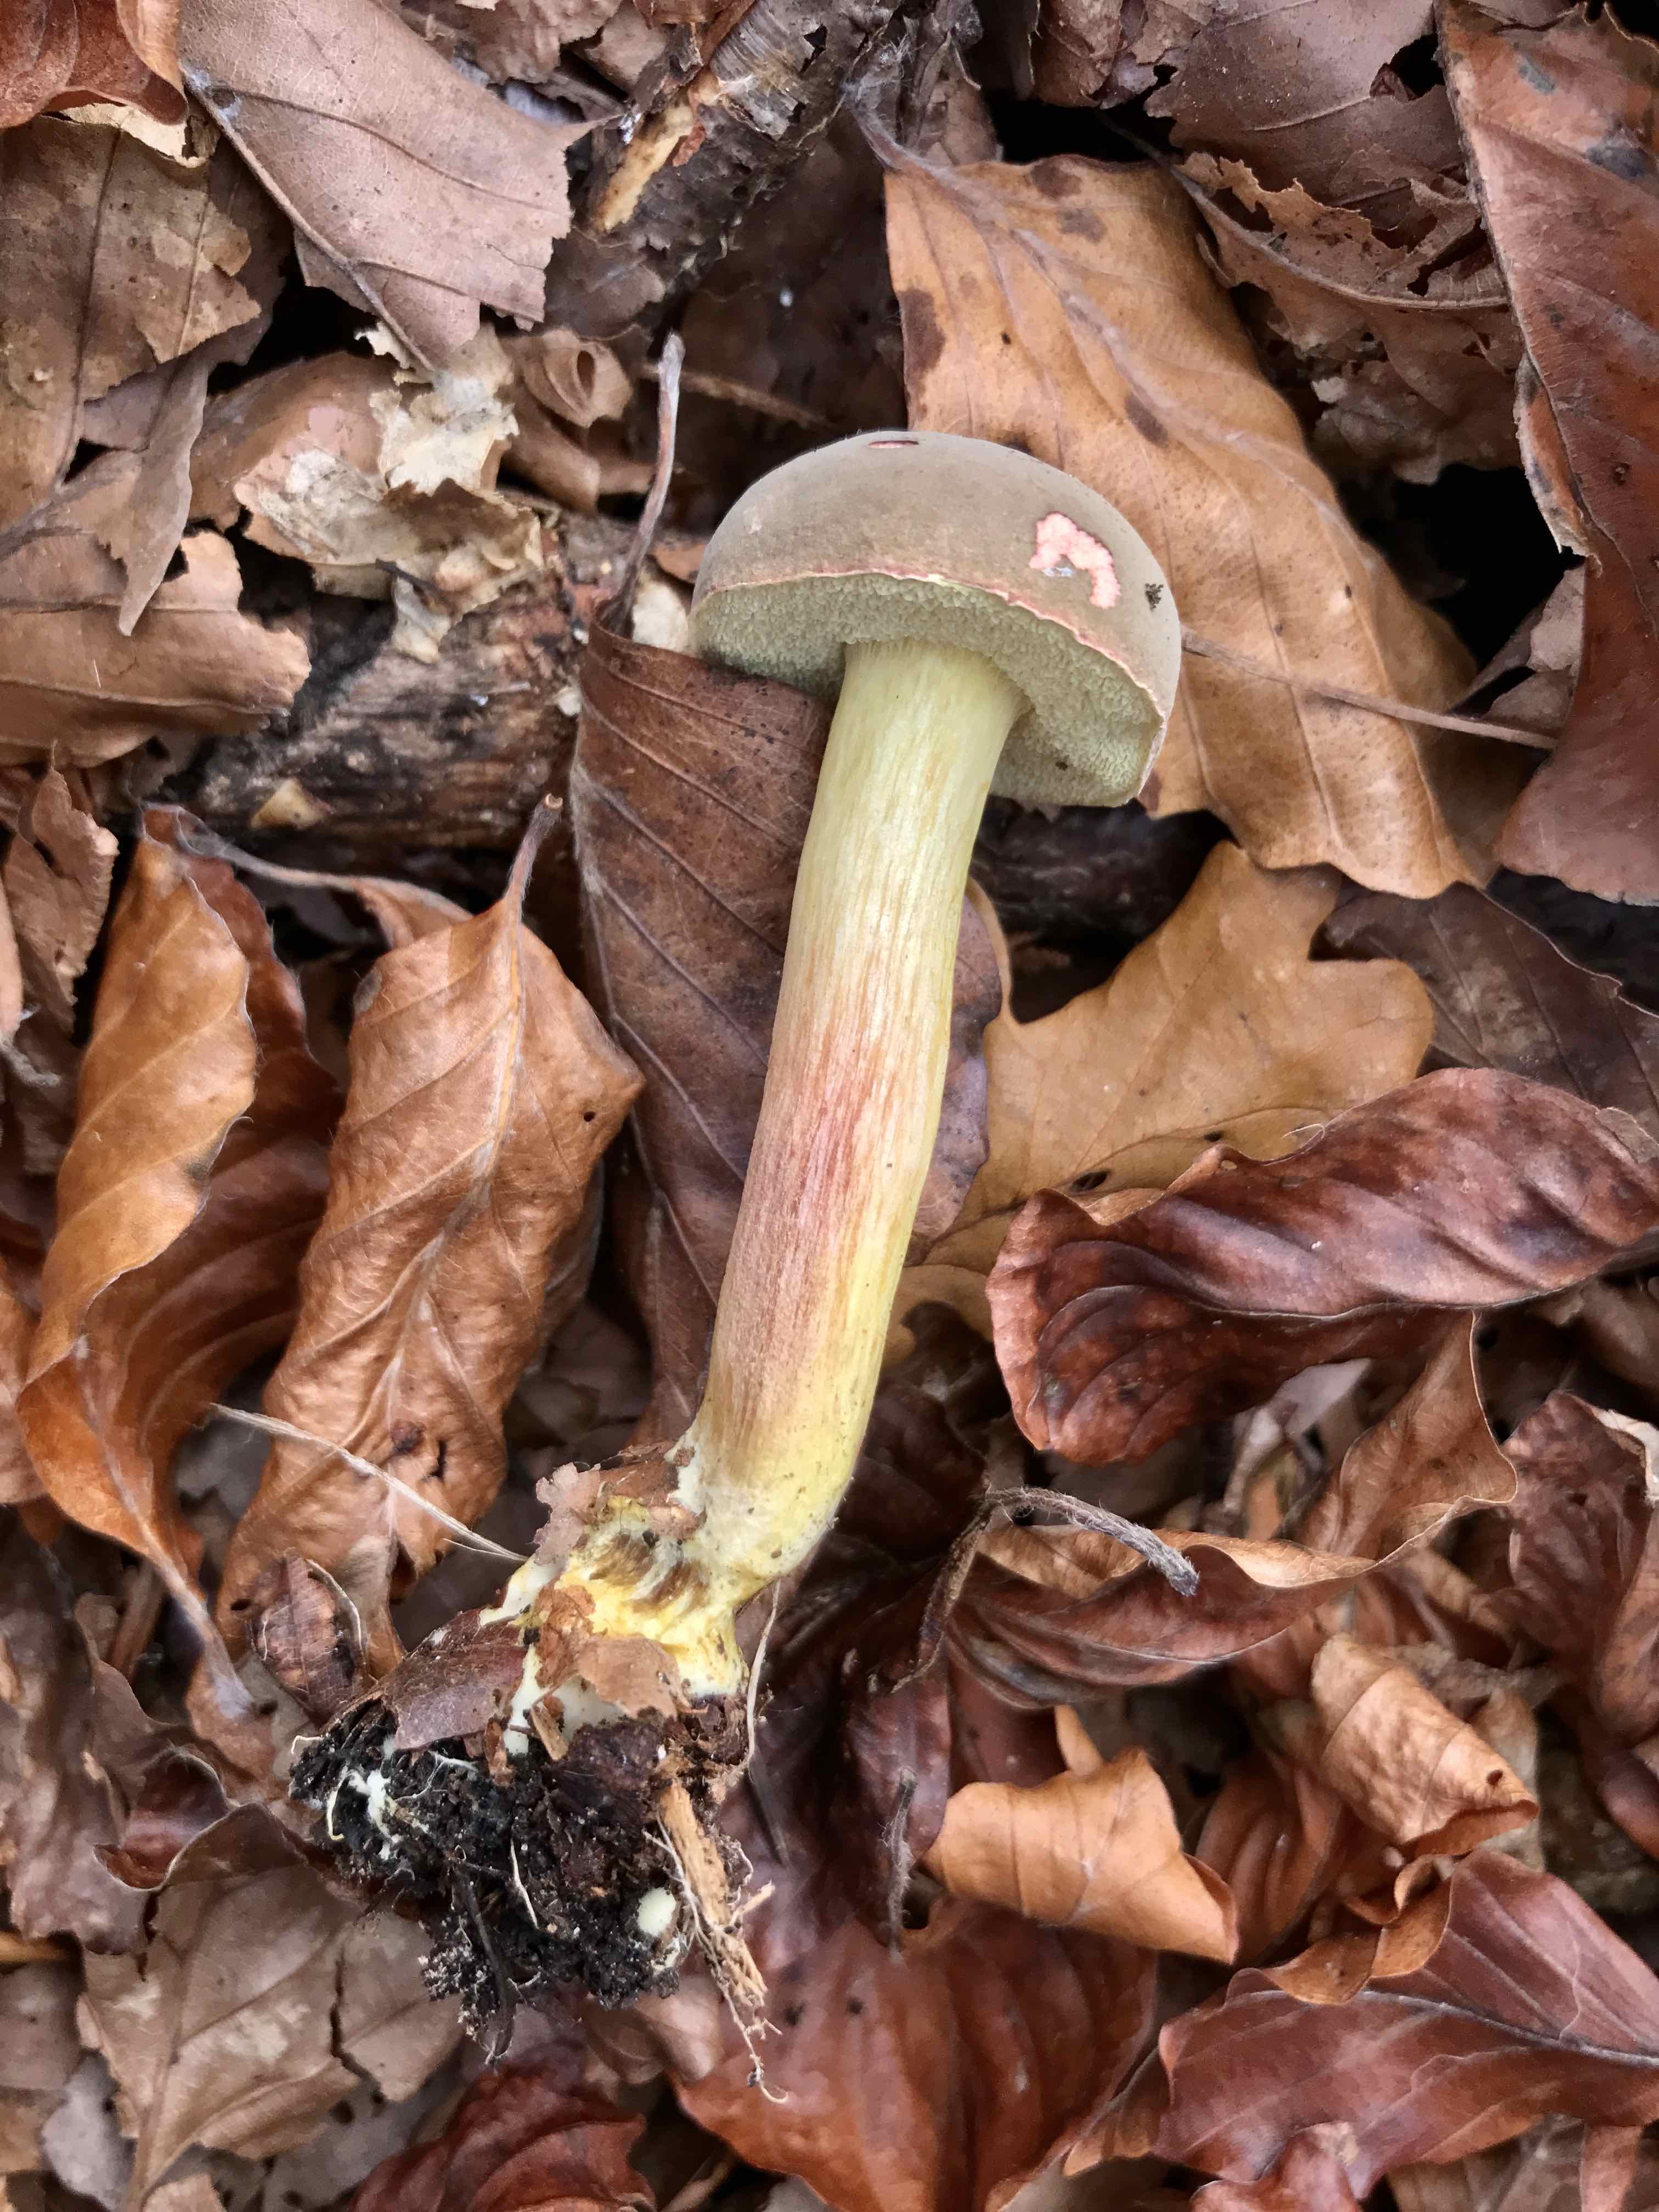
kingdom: Fungi
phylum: Basidiomycota
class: Agaricomycetes
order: Boletales
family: Boletaceae
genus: Xerocomellus
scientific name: Xerocomellus pruinatus
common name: dugget rørhat
